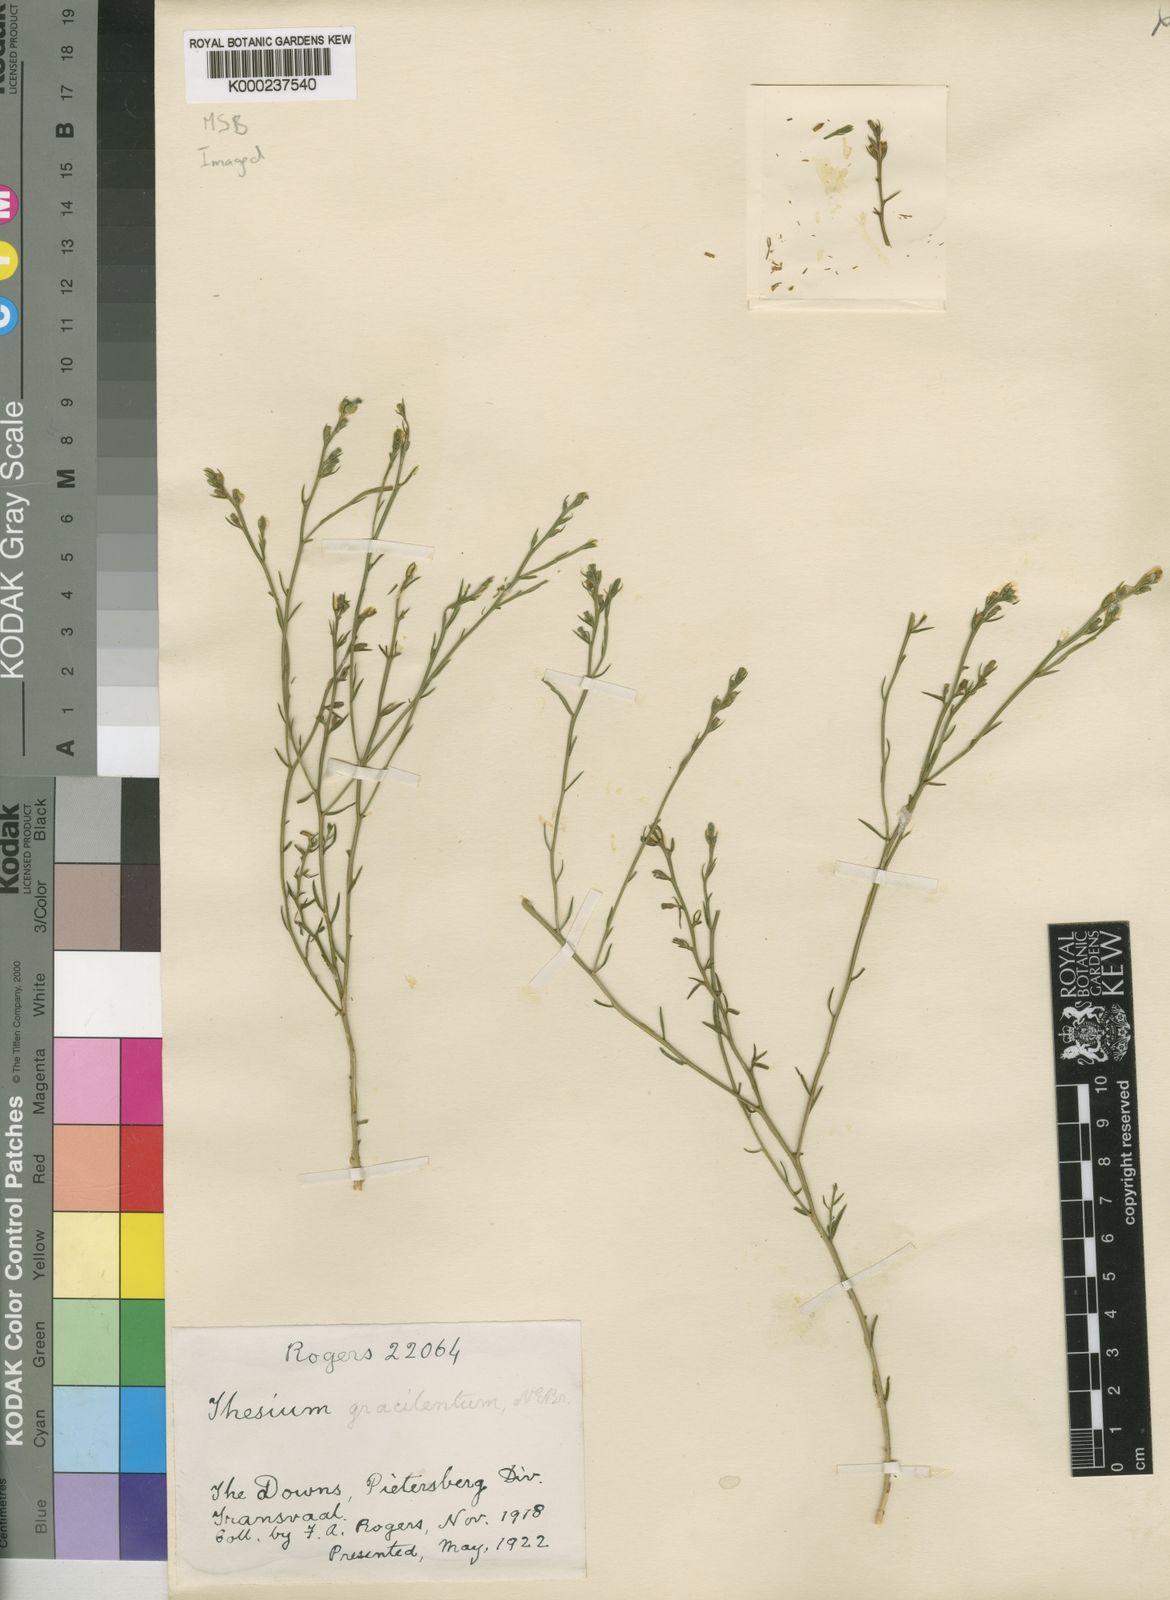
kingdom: Plantae
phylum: Tracheophyta
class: Magnoliopsida
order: Santalales
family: Thesiaceae
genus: Thesium
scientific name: Thesium gracilentum
